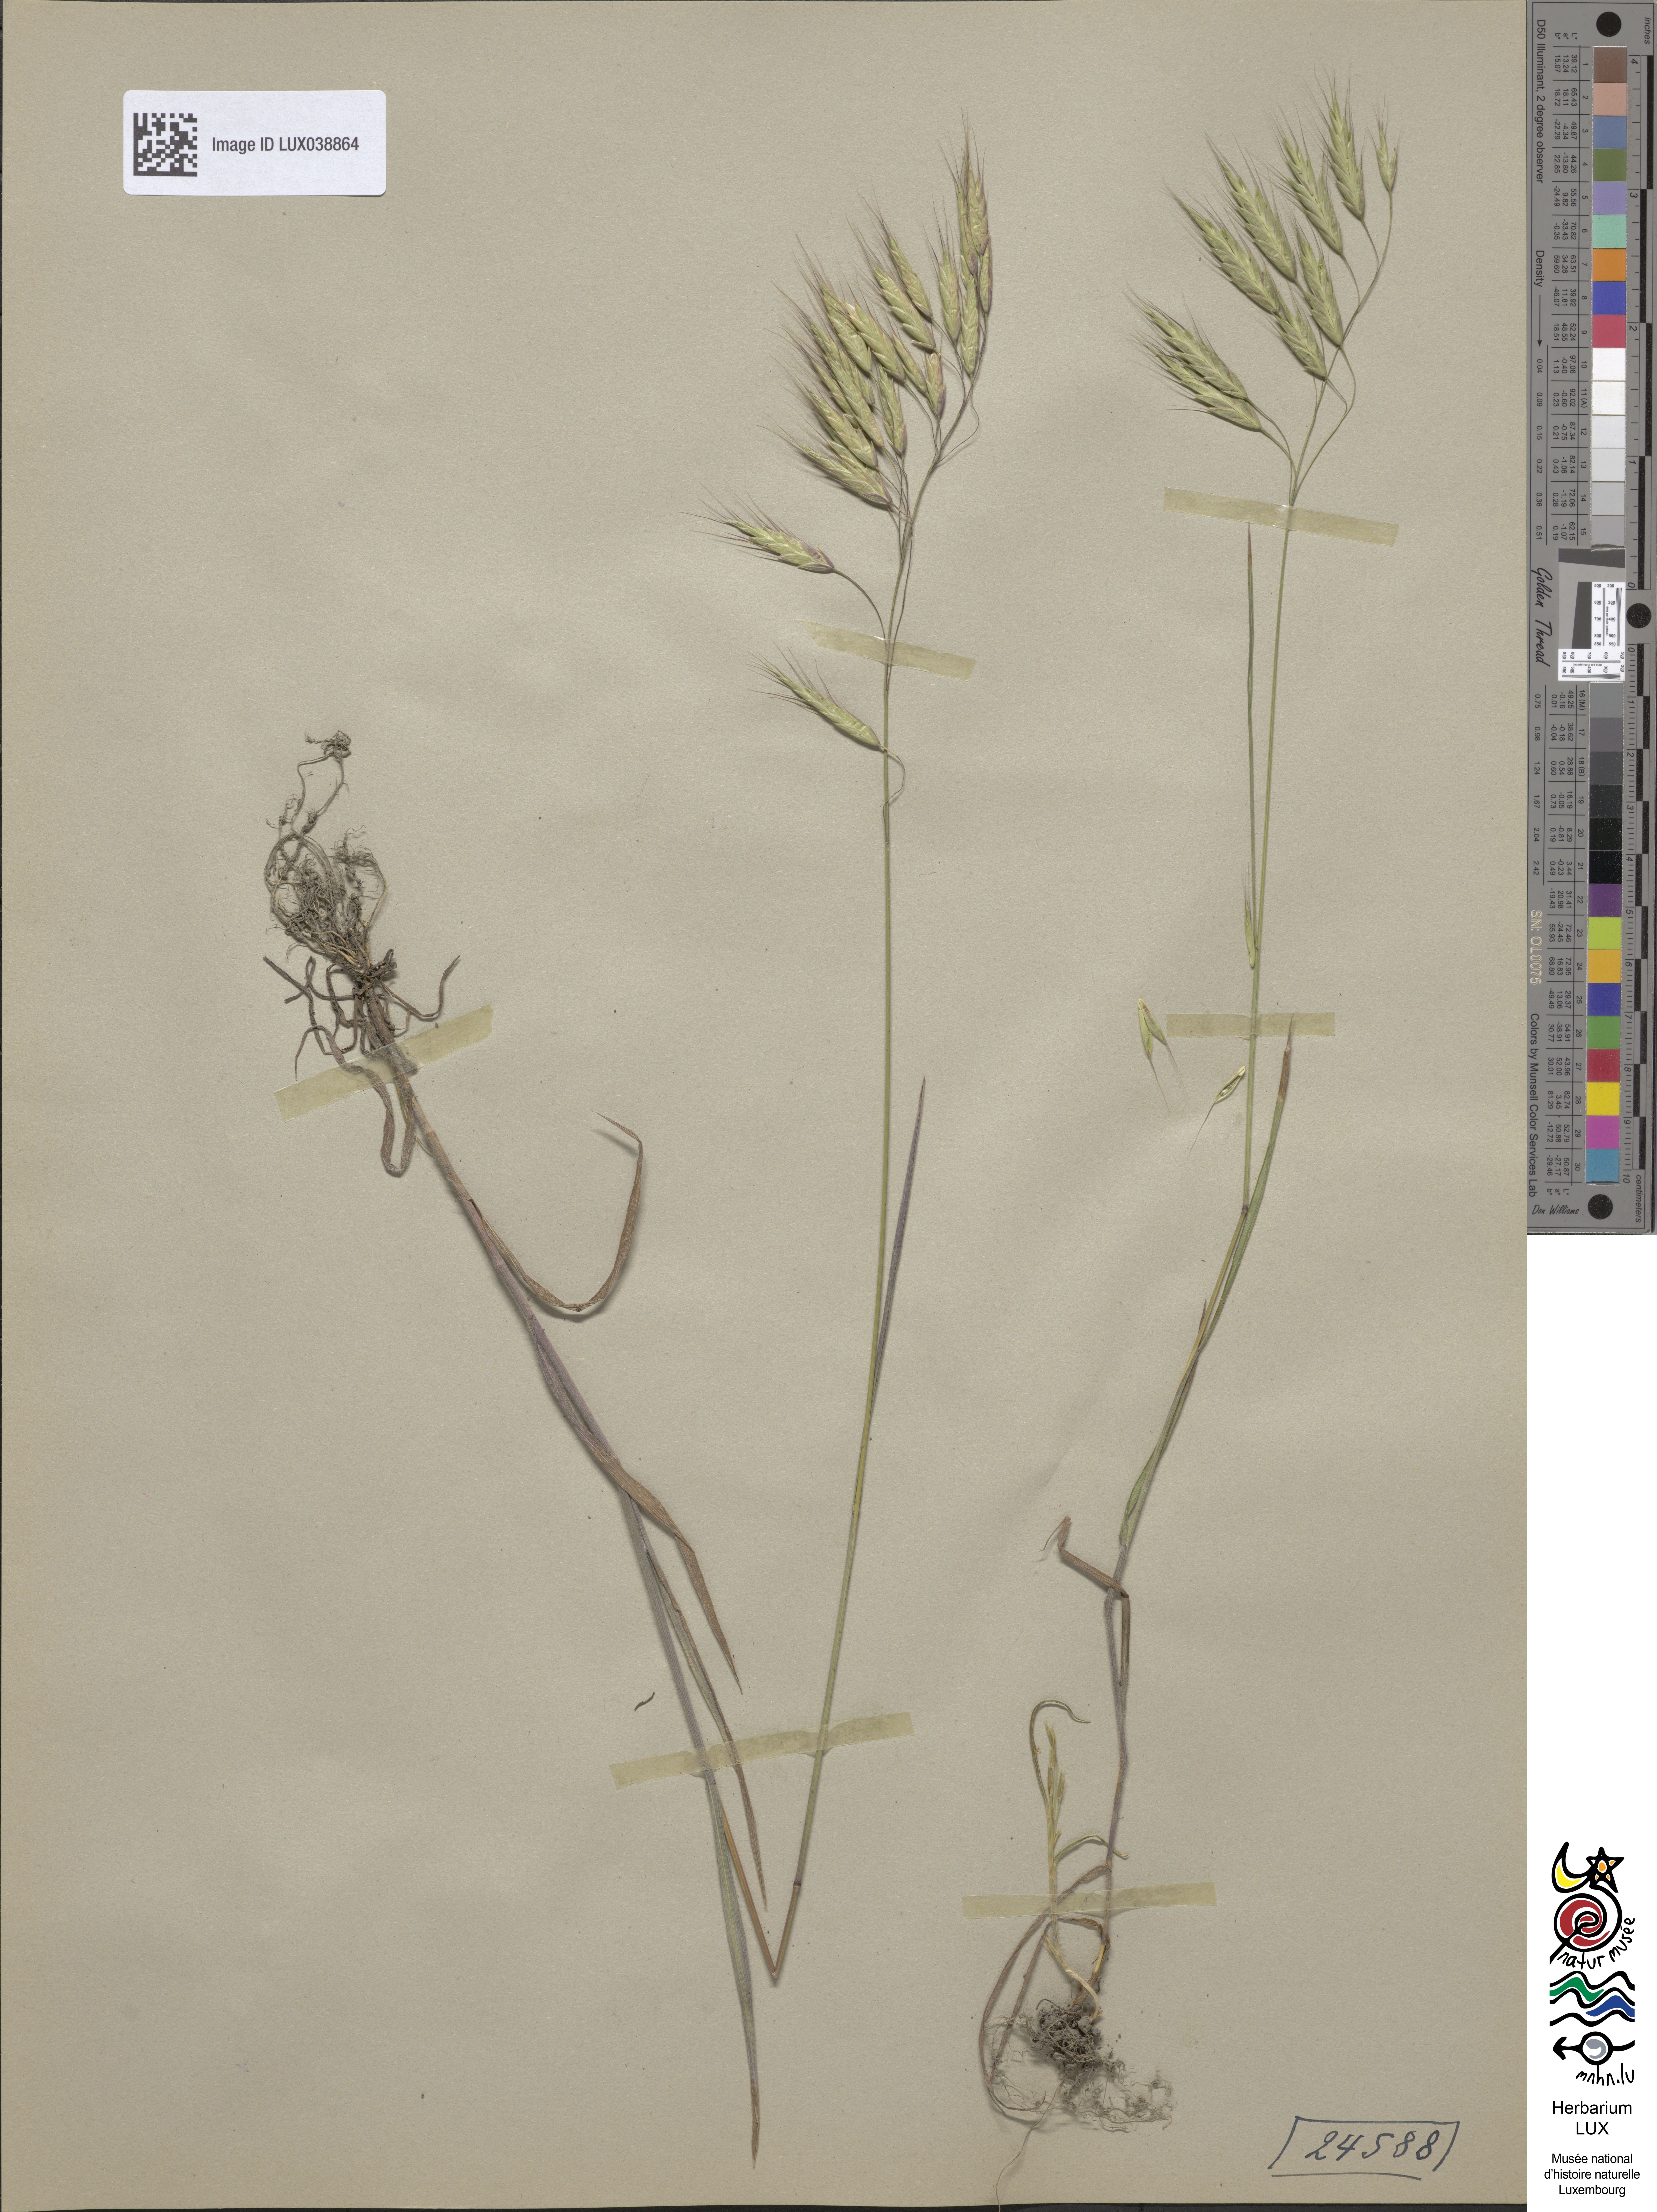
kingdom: Plantae
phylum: Tracheophyta
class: Liliopsida
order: Poales
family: Poaceae
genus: Bromus
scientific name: Bromus japonicus
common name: Japanese brome
